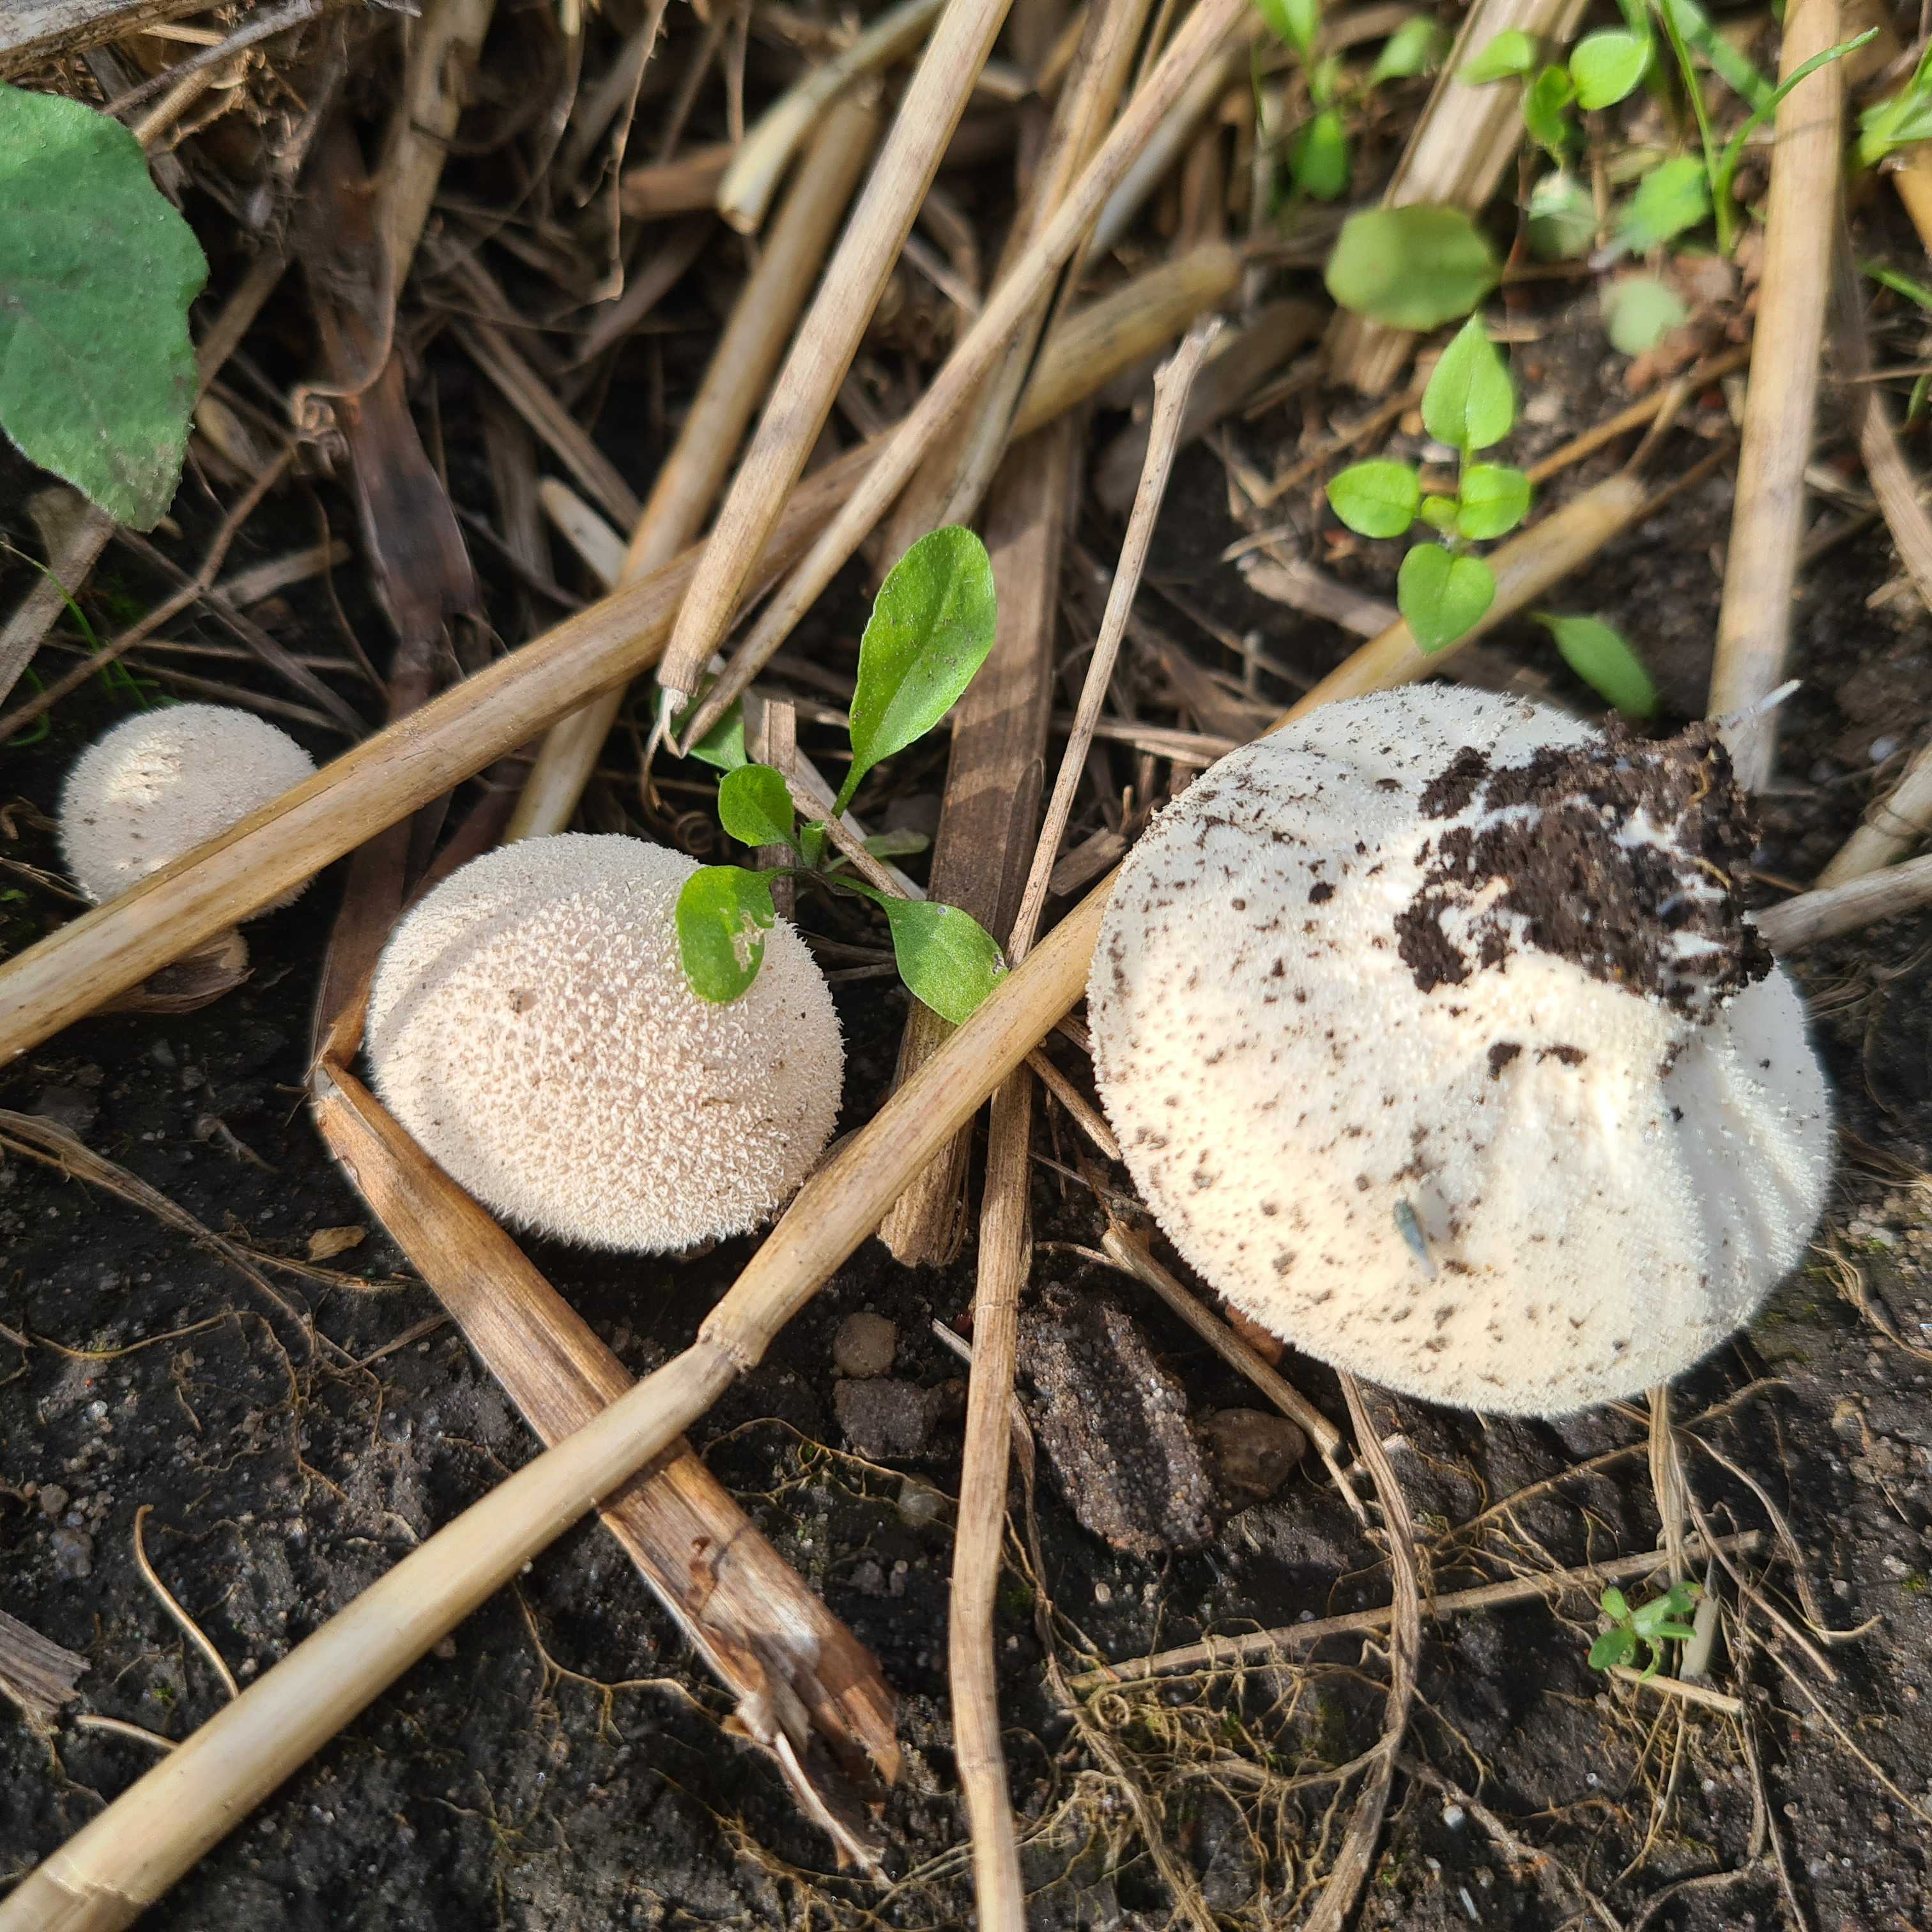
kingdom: Fungi
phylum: Basidiomycota
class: Agaricomycetes
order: Agaricales
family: Lycoperdaceae
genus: Lycoperdon
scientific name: Lycoperdon pratense
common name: flad støvbold
